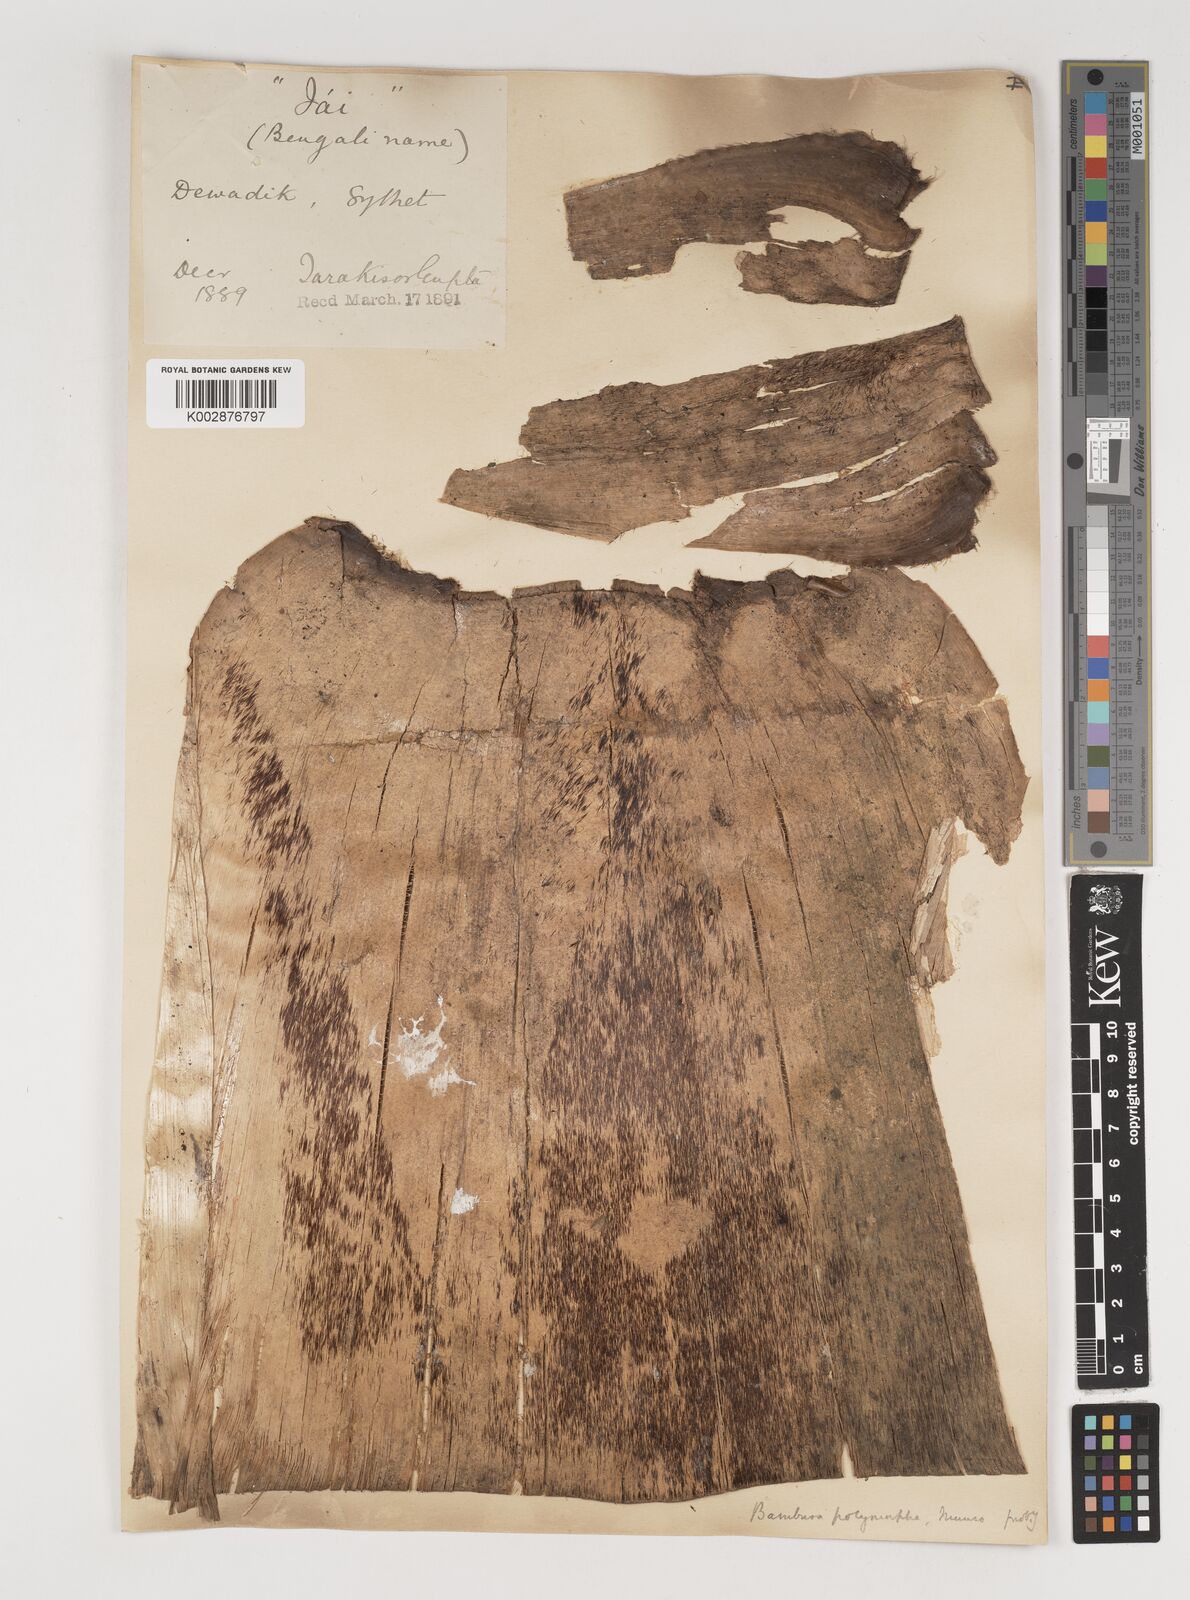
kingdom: Plantae
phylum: Tracheophyta
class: Liliopsida
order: Poales
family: Poaceae
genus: Bambusa
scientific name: Bambusa polymorpha
